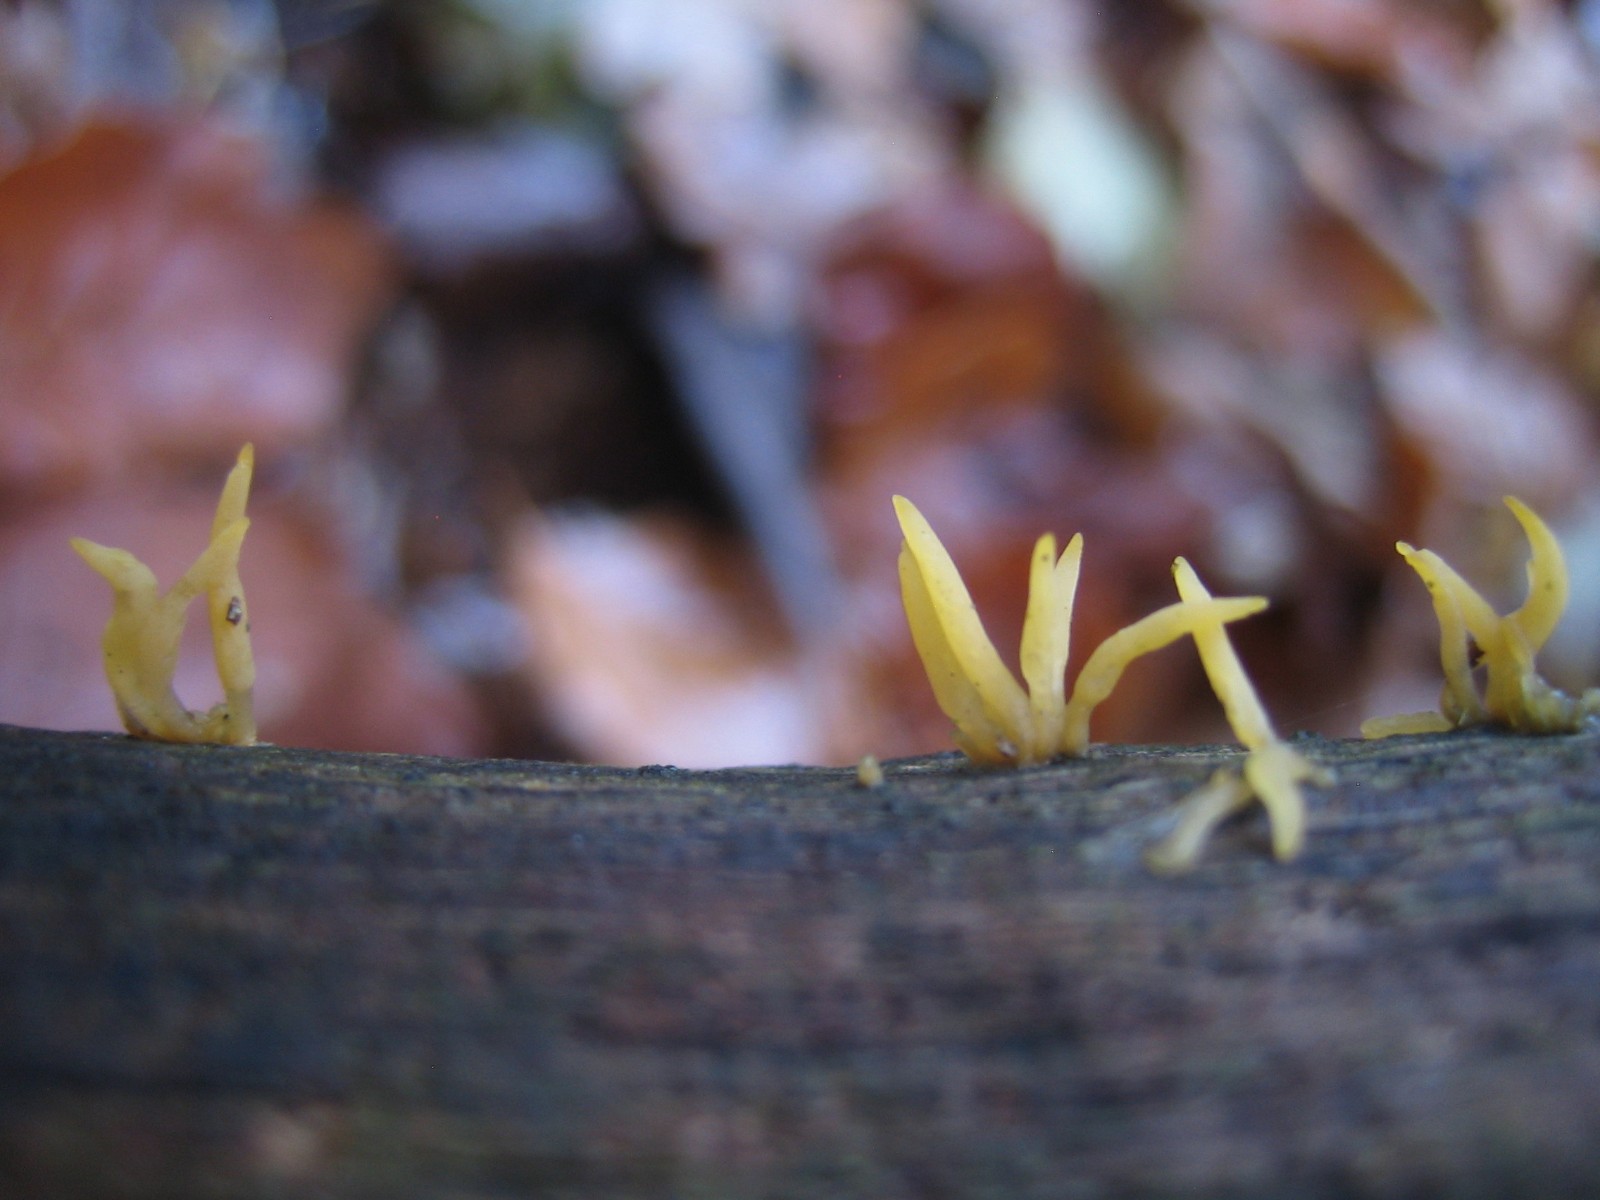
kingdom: Fungi
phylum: Basidiomycota
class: Dacrymycetes
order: Dacrymycetales
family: Dacrymycetaceae
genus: Calocera
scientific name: Calocera cornea
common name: liden guldgaffel
